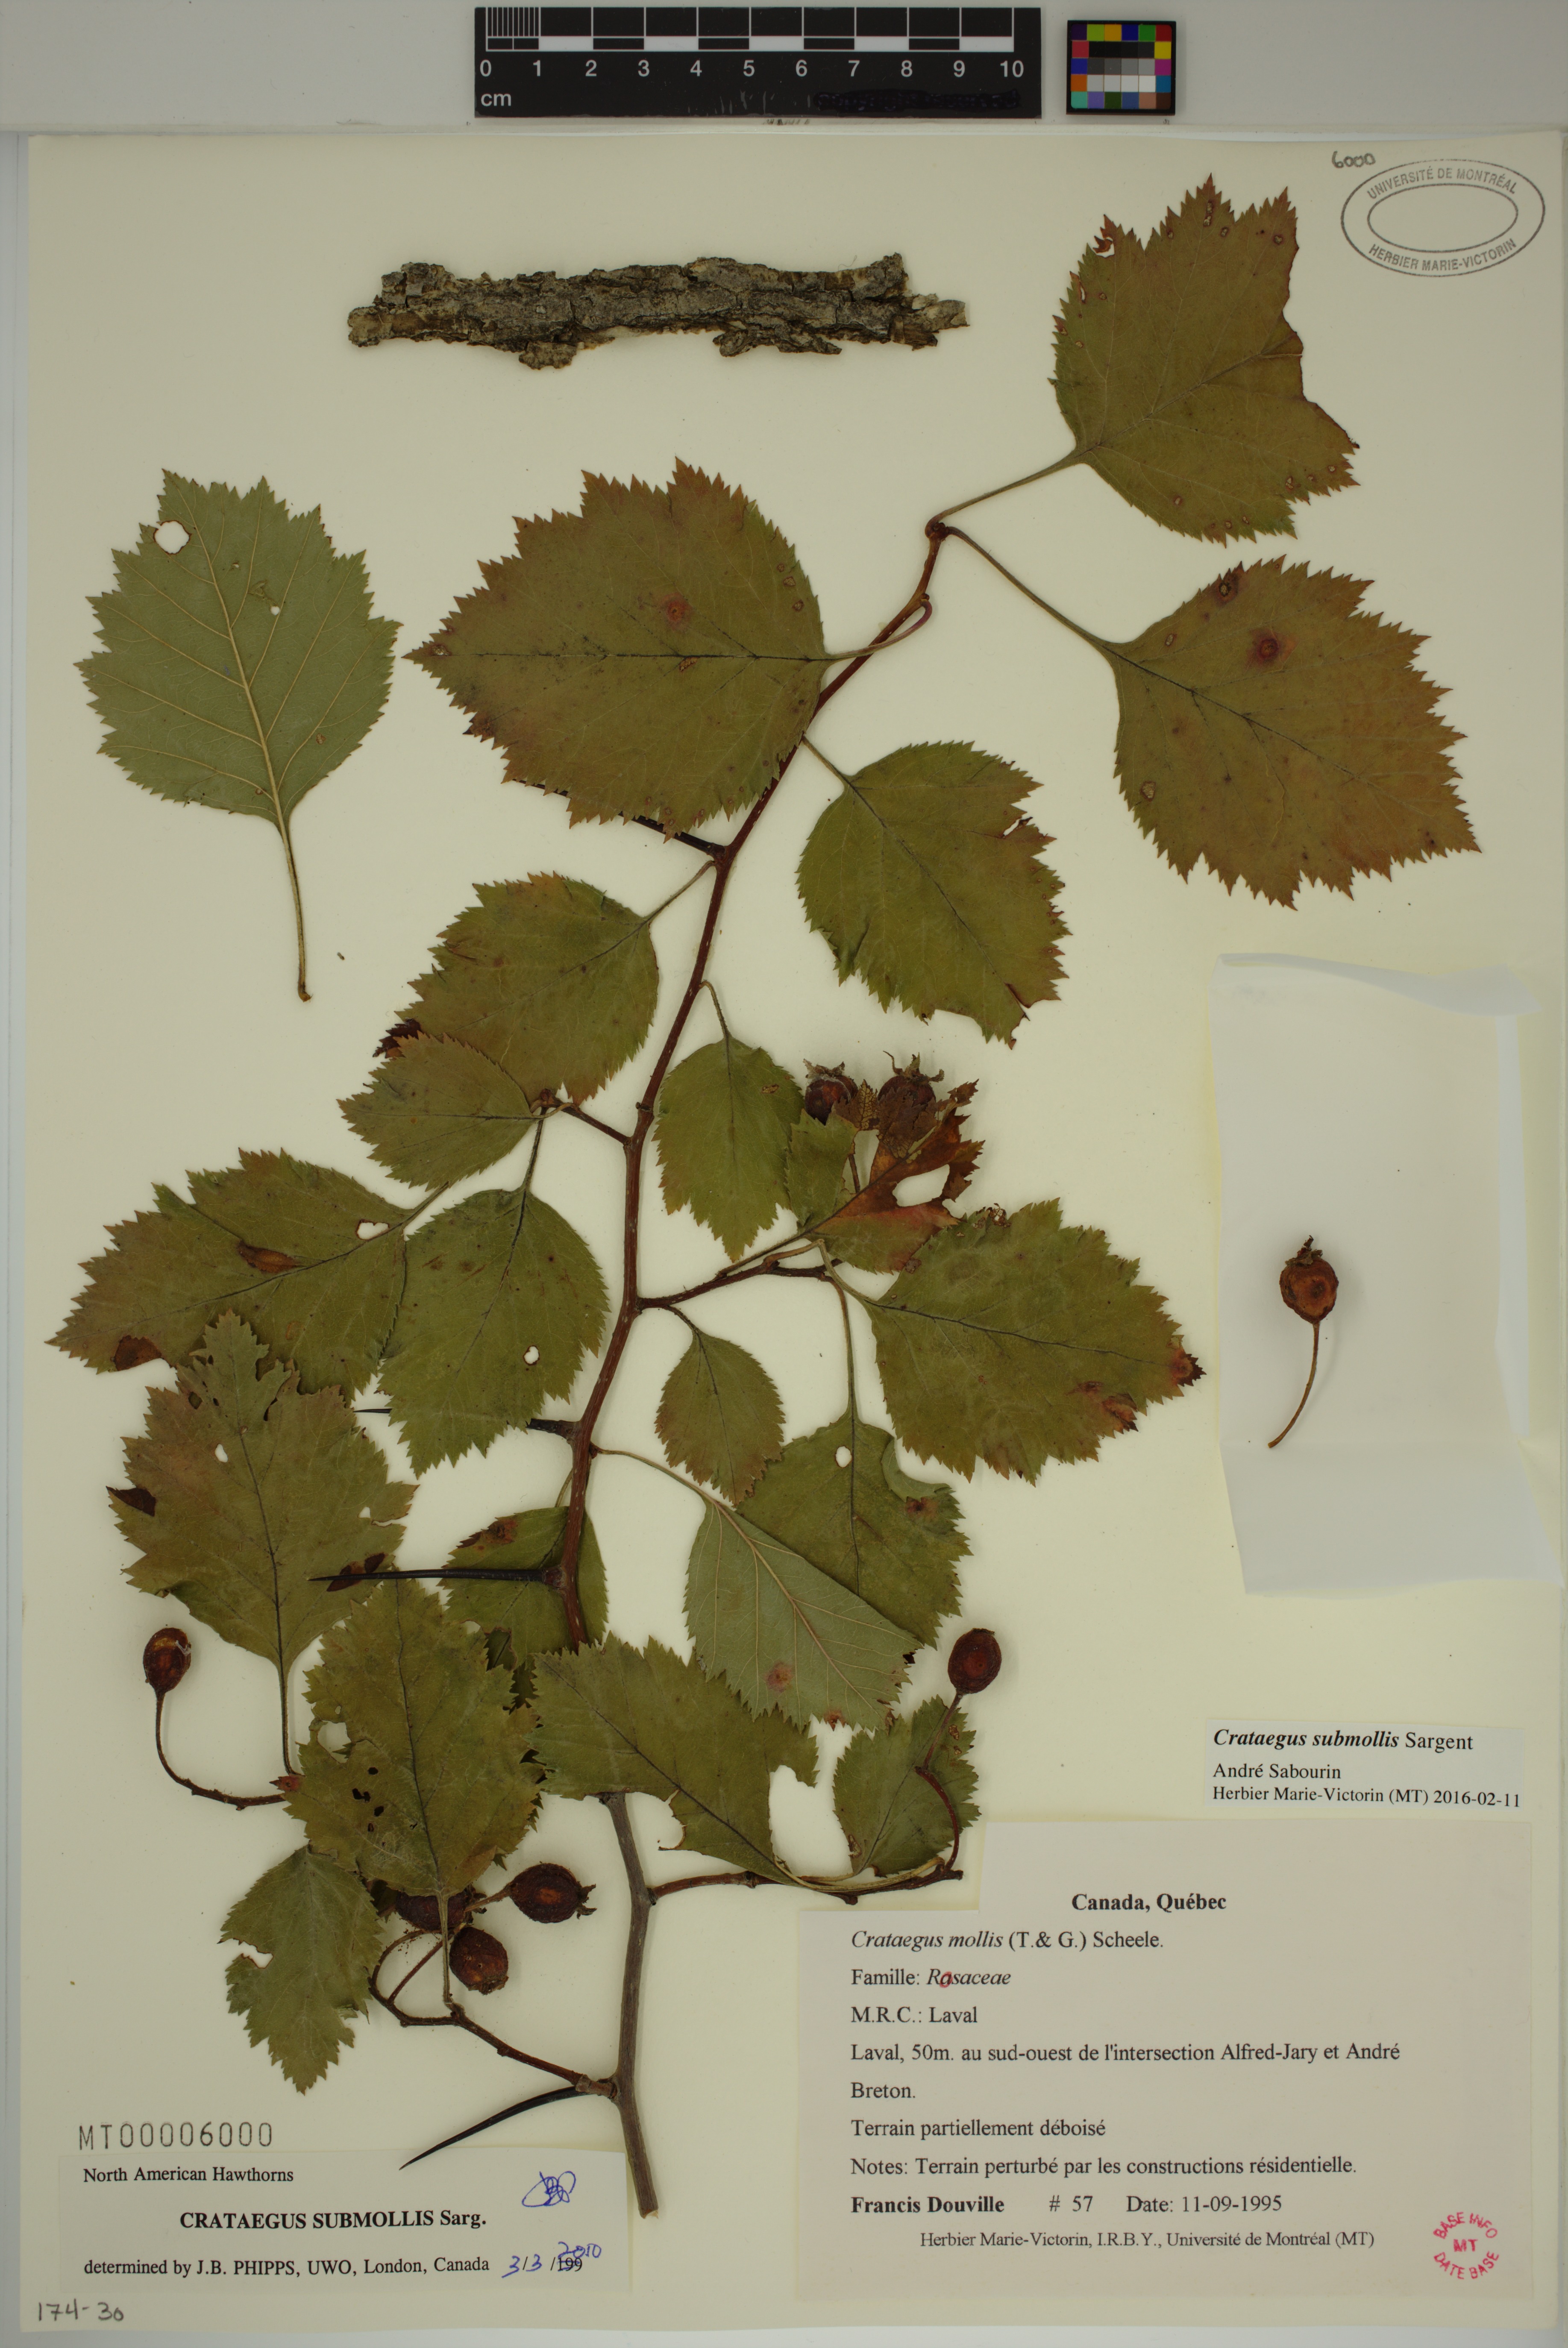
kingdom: Plantae
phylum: Tracheophyta
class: Magnoliopsida
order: Rosales
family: Rosaceae
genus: Crataegus
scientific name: Crataegus submollis
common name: Hairy cockspurthorn
